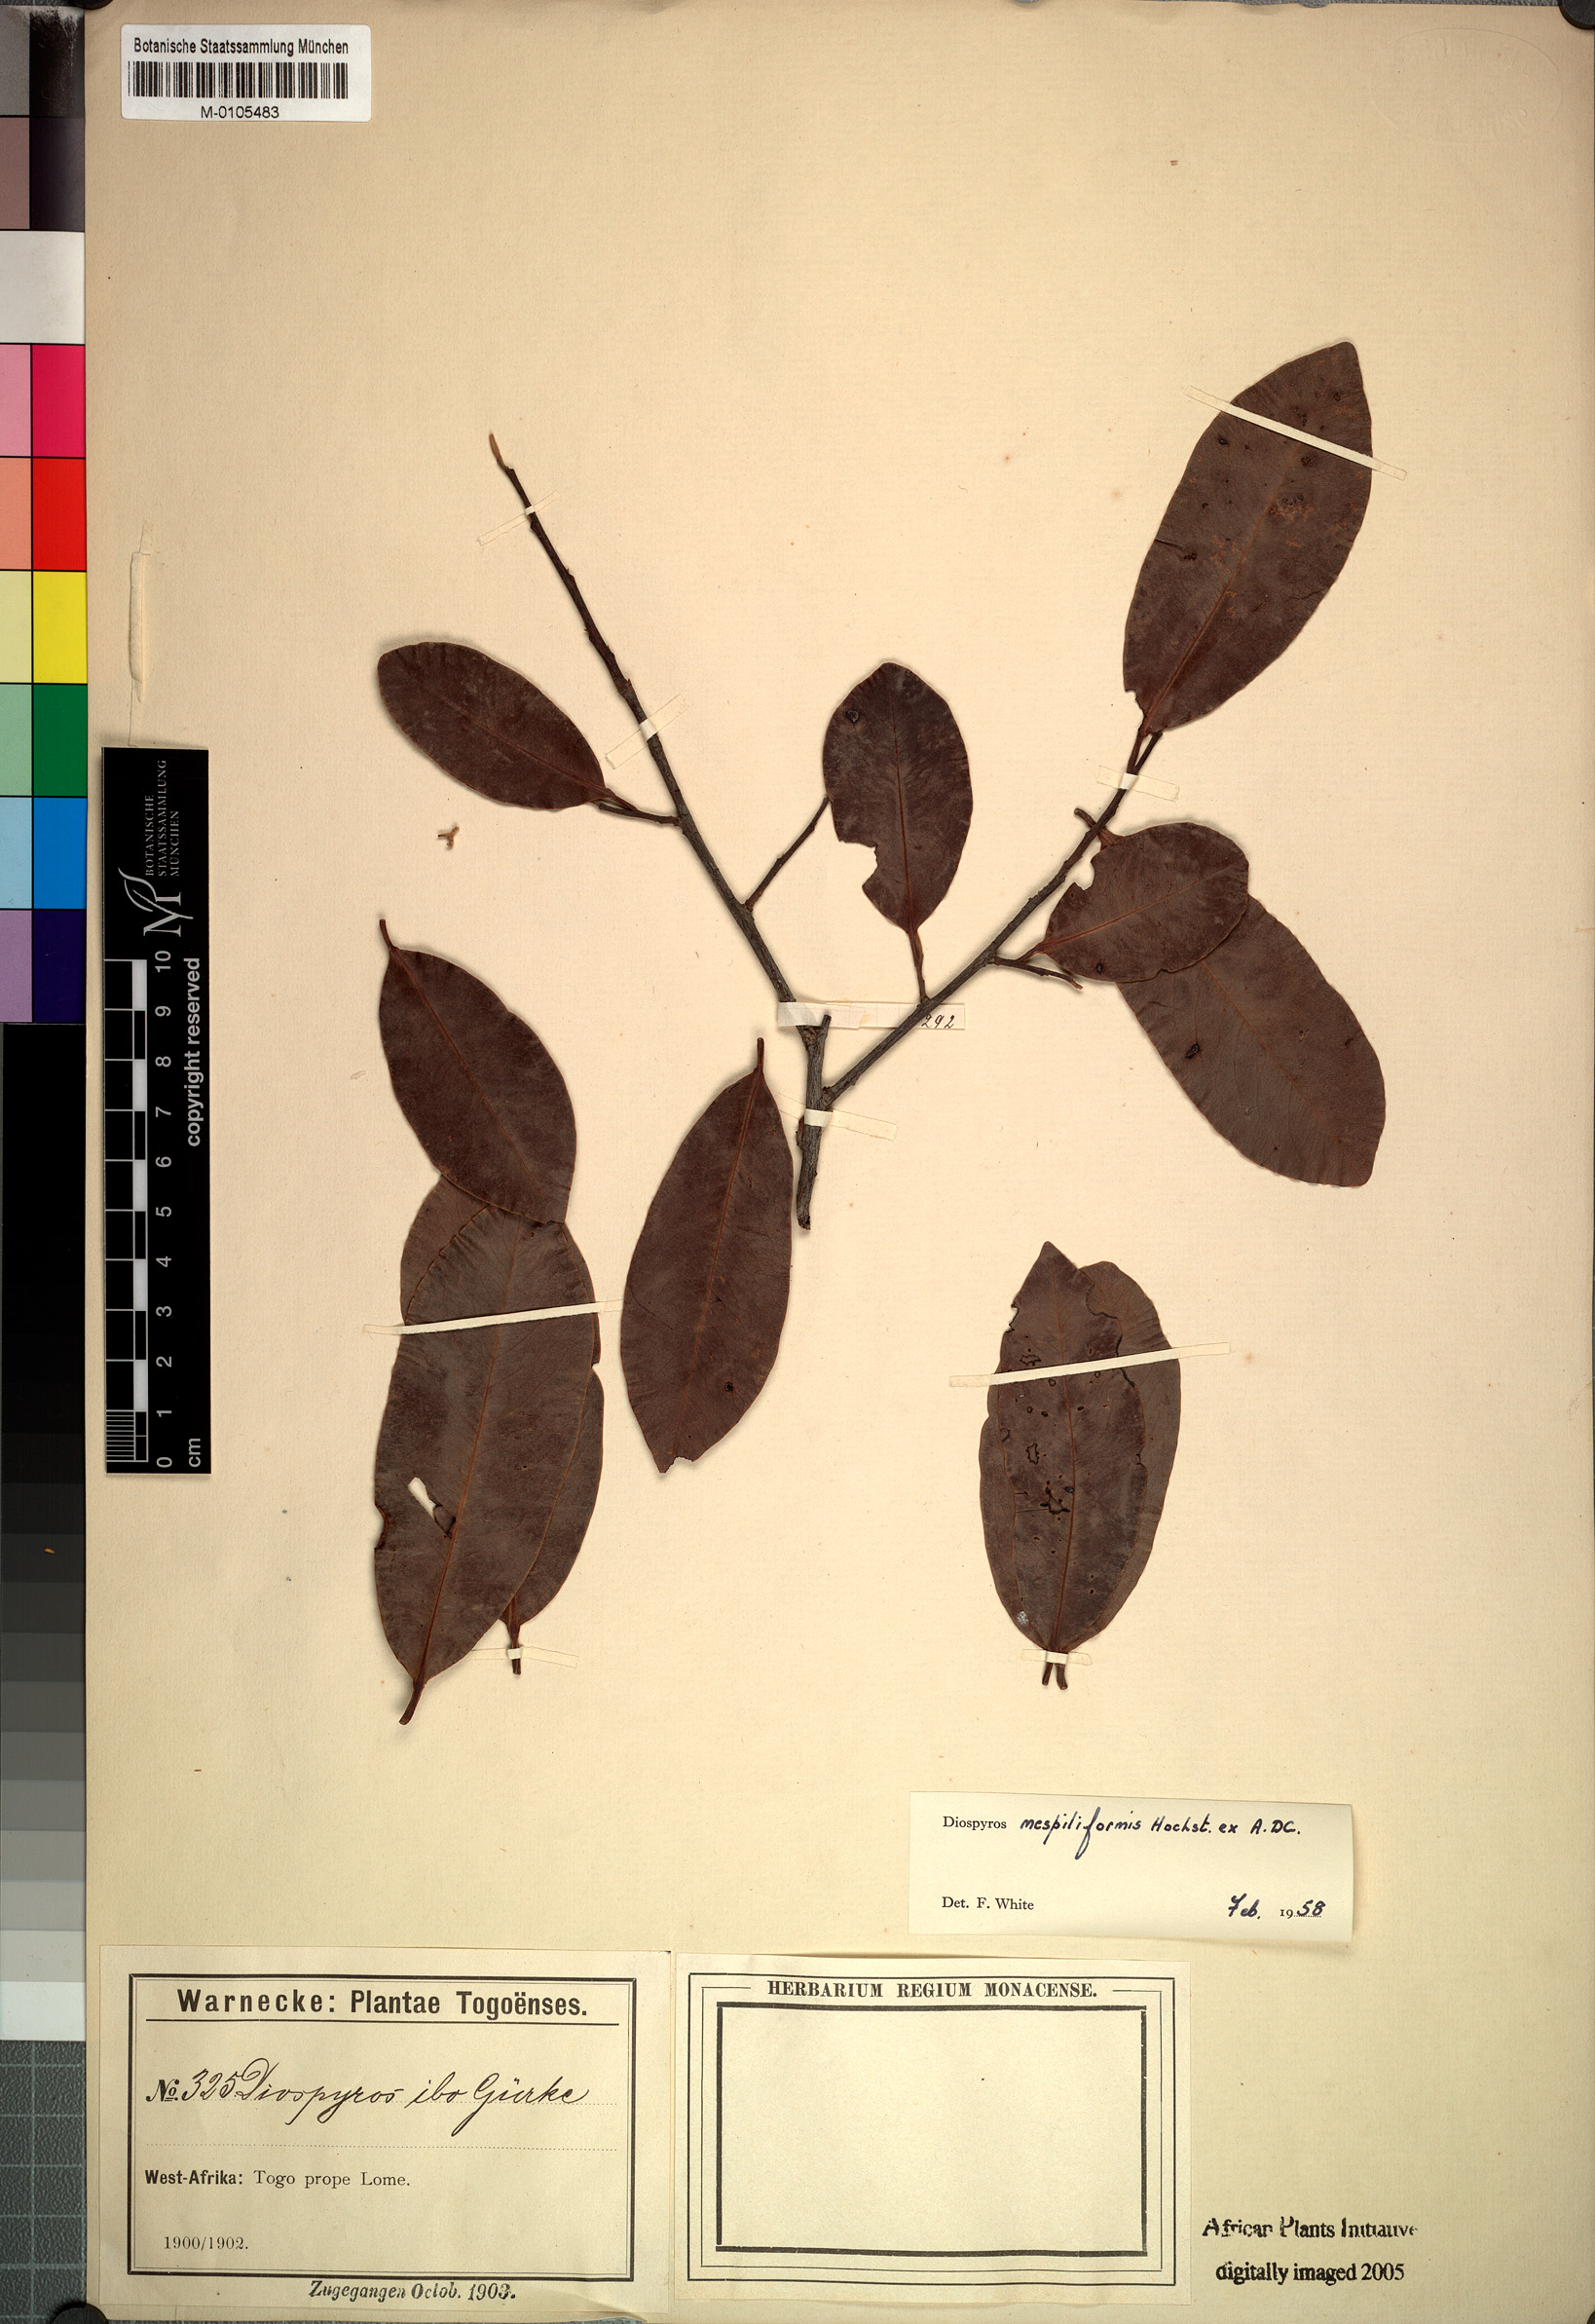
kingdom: Plantae
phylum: Tracheophyta
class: Magnoliopsida
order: Ericales
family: Ebenaceae
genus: Diospyros
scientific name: Diospyros mespiliformis
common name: Ebony diospyros
